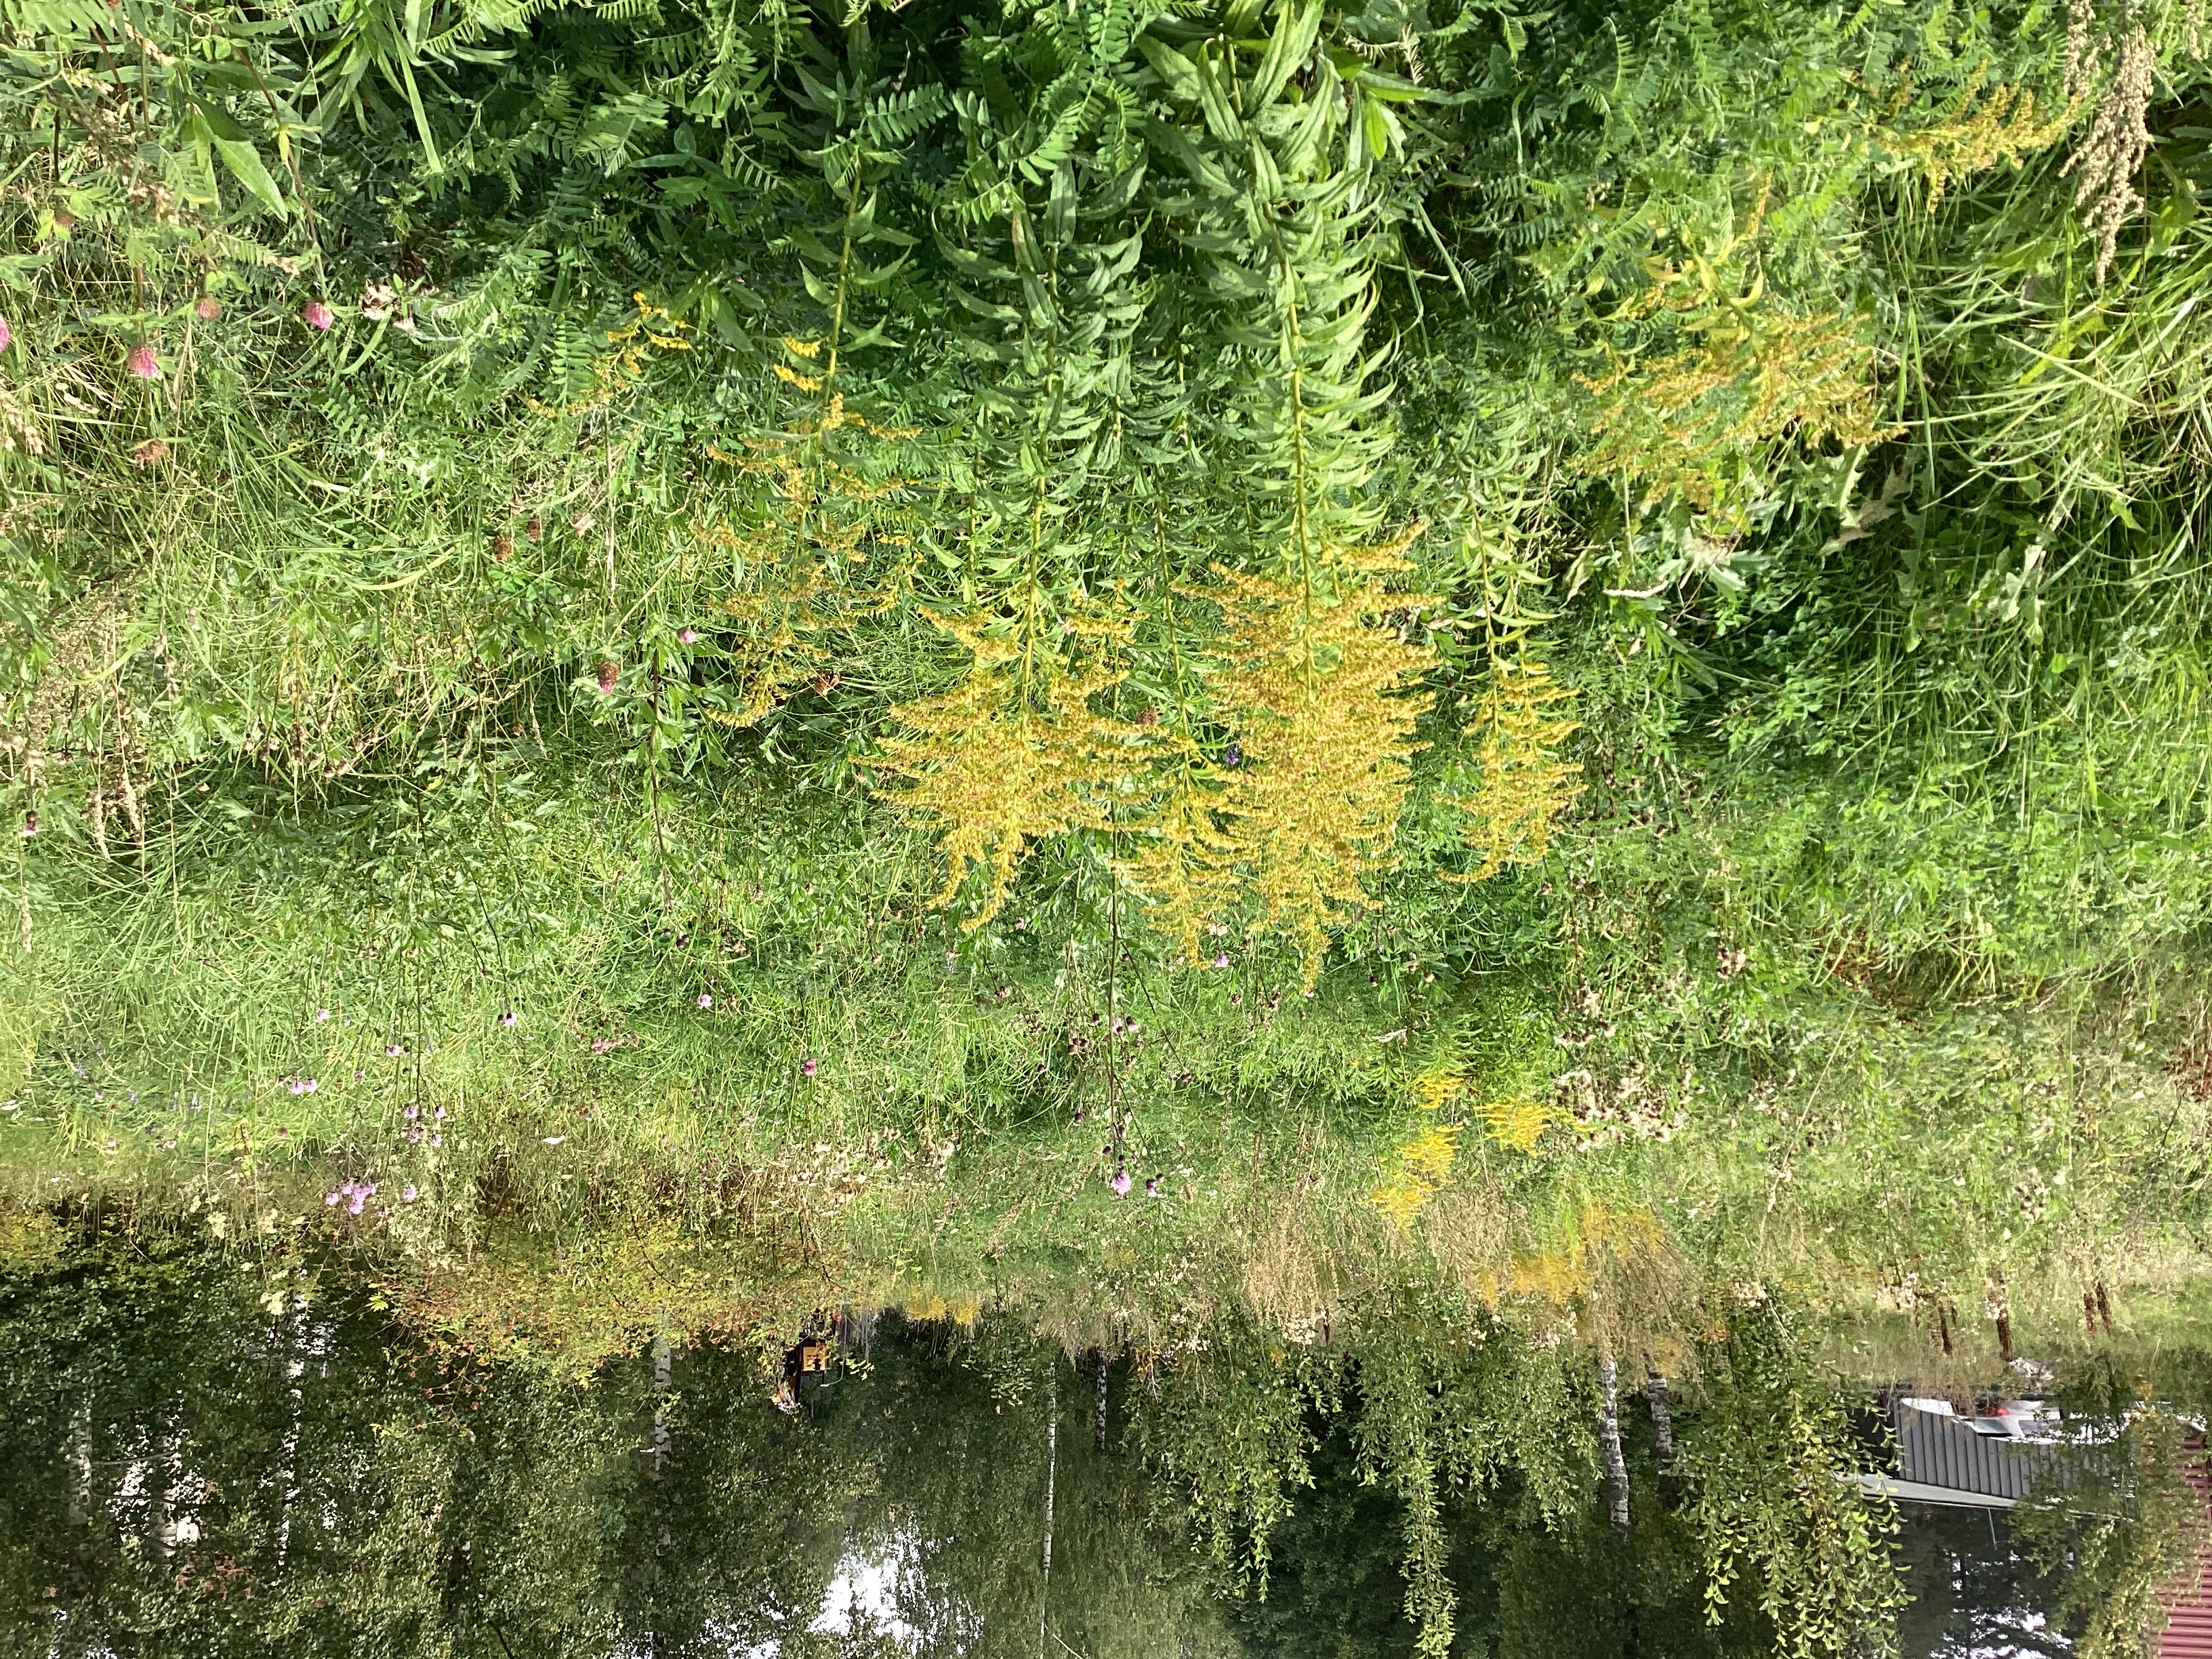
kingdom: Plantae
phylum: Tracheophyta
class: Magnoliopsida
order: Asterales
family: Asteraceae
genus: Solidago
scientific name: Solidago canadensis
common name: kanadagullris
